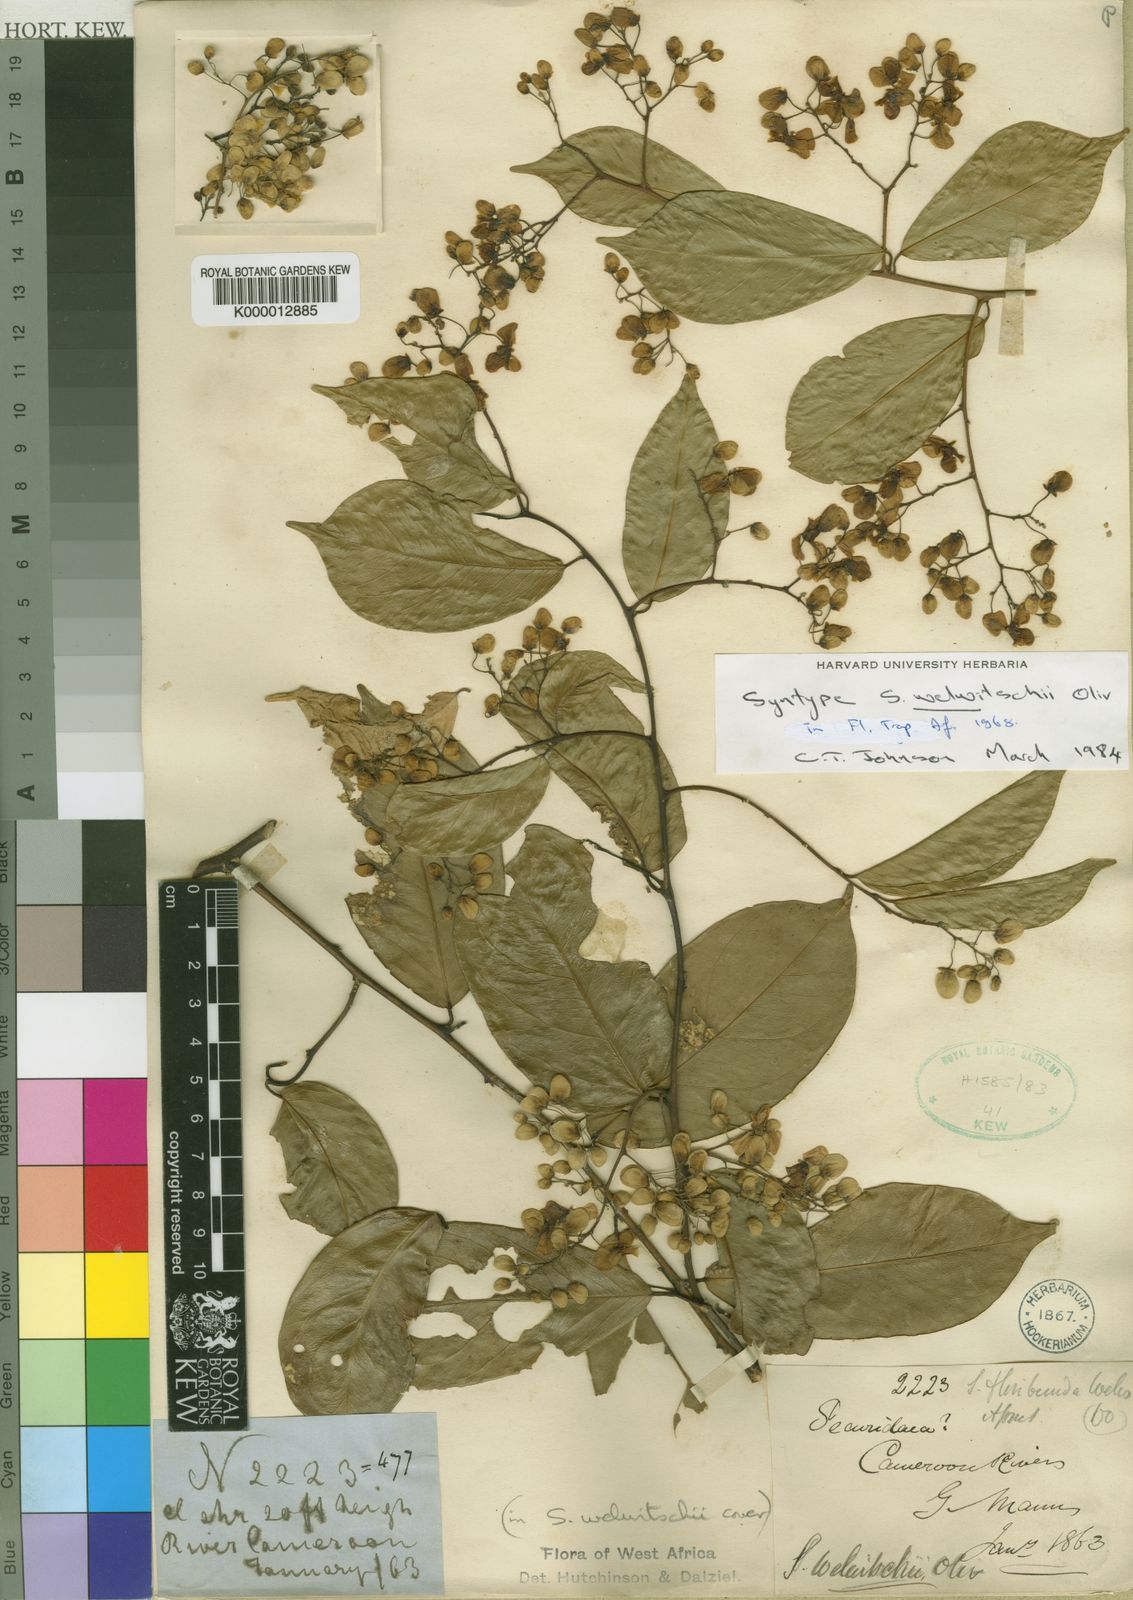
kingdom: Plantae
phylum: Tracheophyta
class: Magnoliopsida
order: Fabales
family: Polygalaceae
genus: Securidaca
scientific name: Securidaca welwitschii
